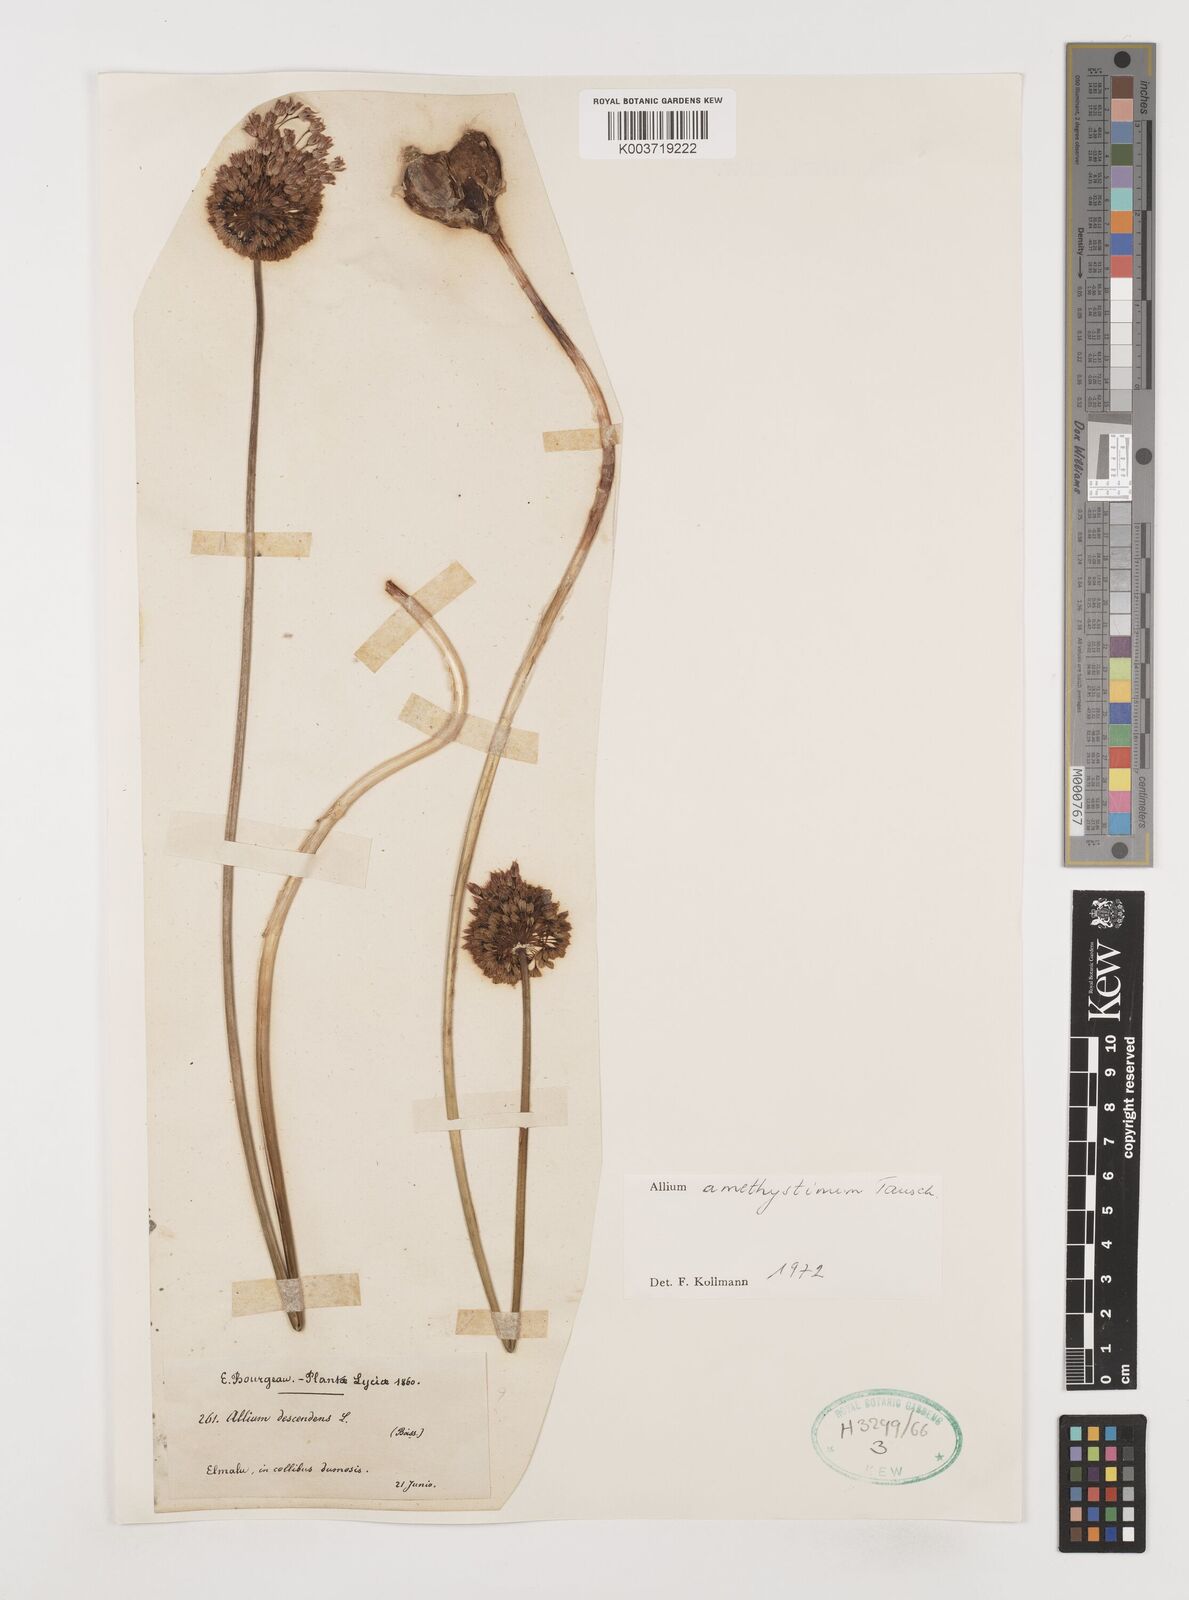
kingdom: Plantae
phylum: Tracheophyta
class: Liliopsida
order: Asparagales
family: Amaryllidaceae
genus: Allium
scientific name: Allium amethystinum
